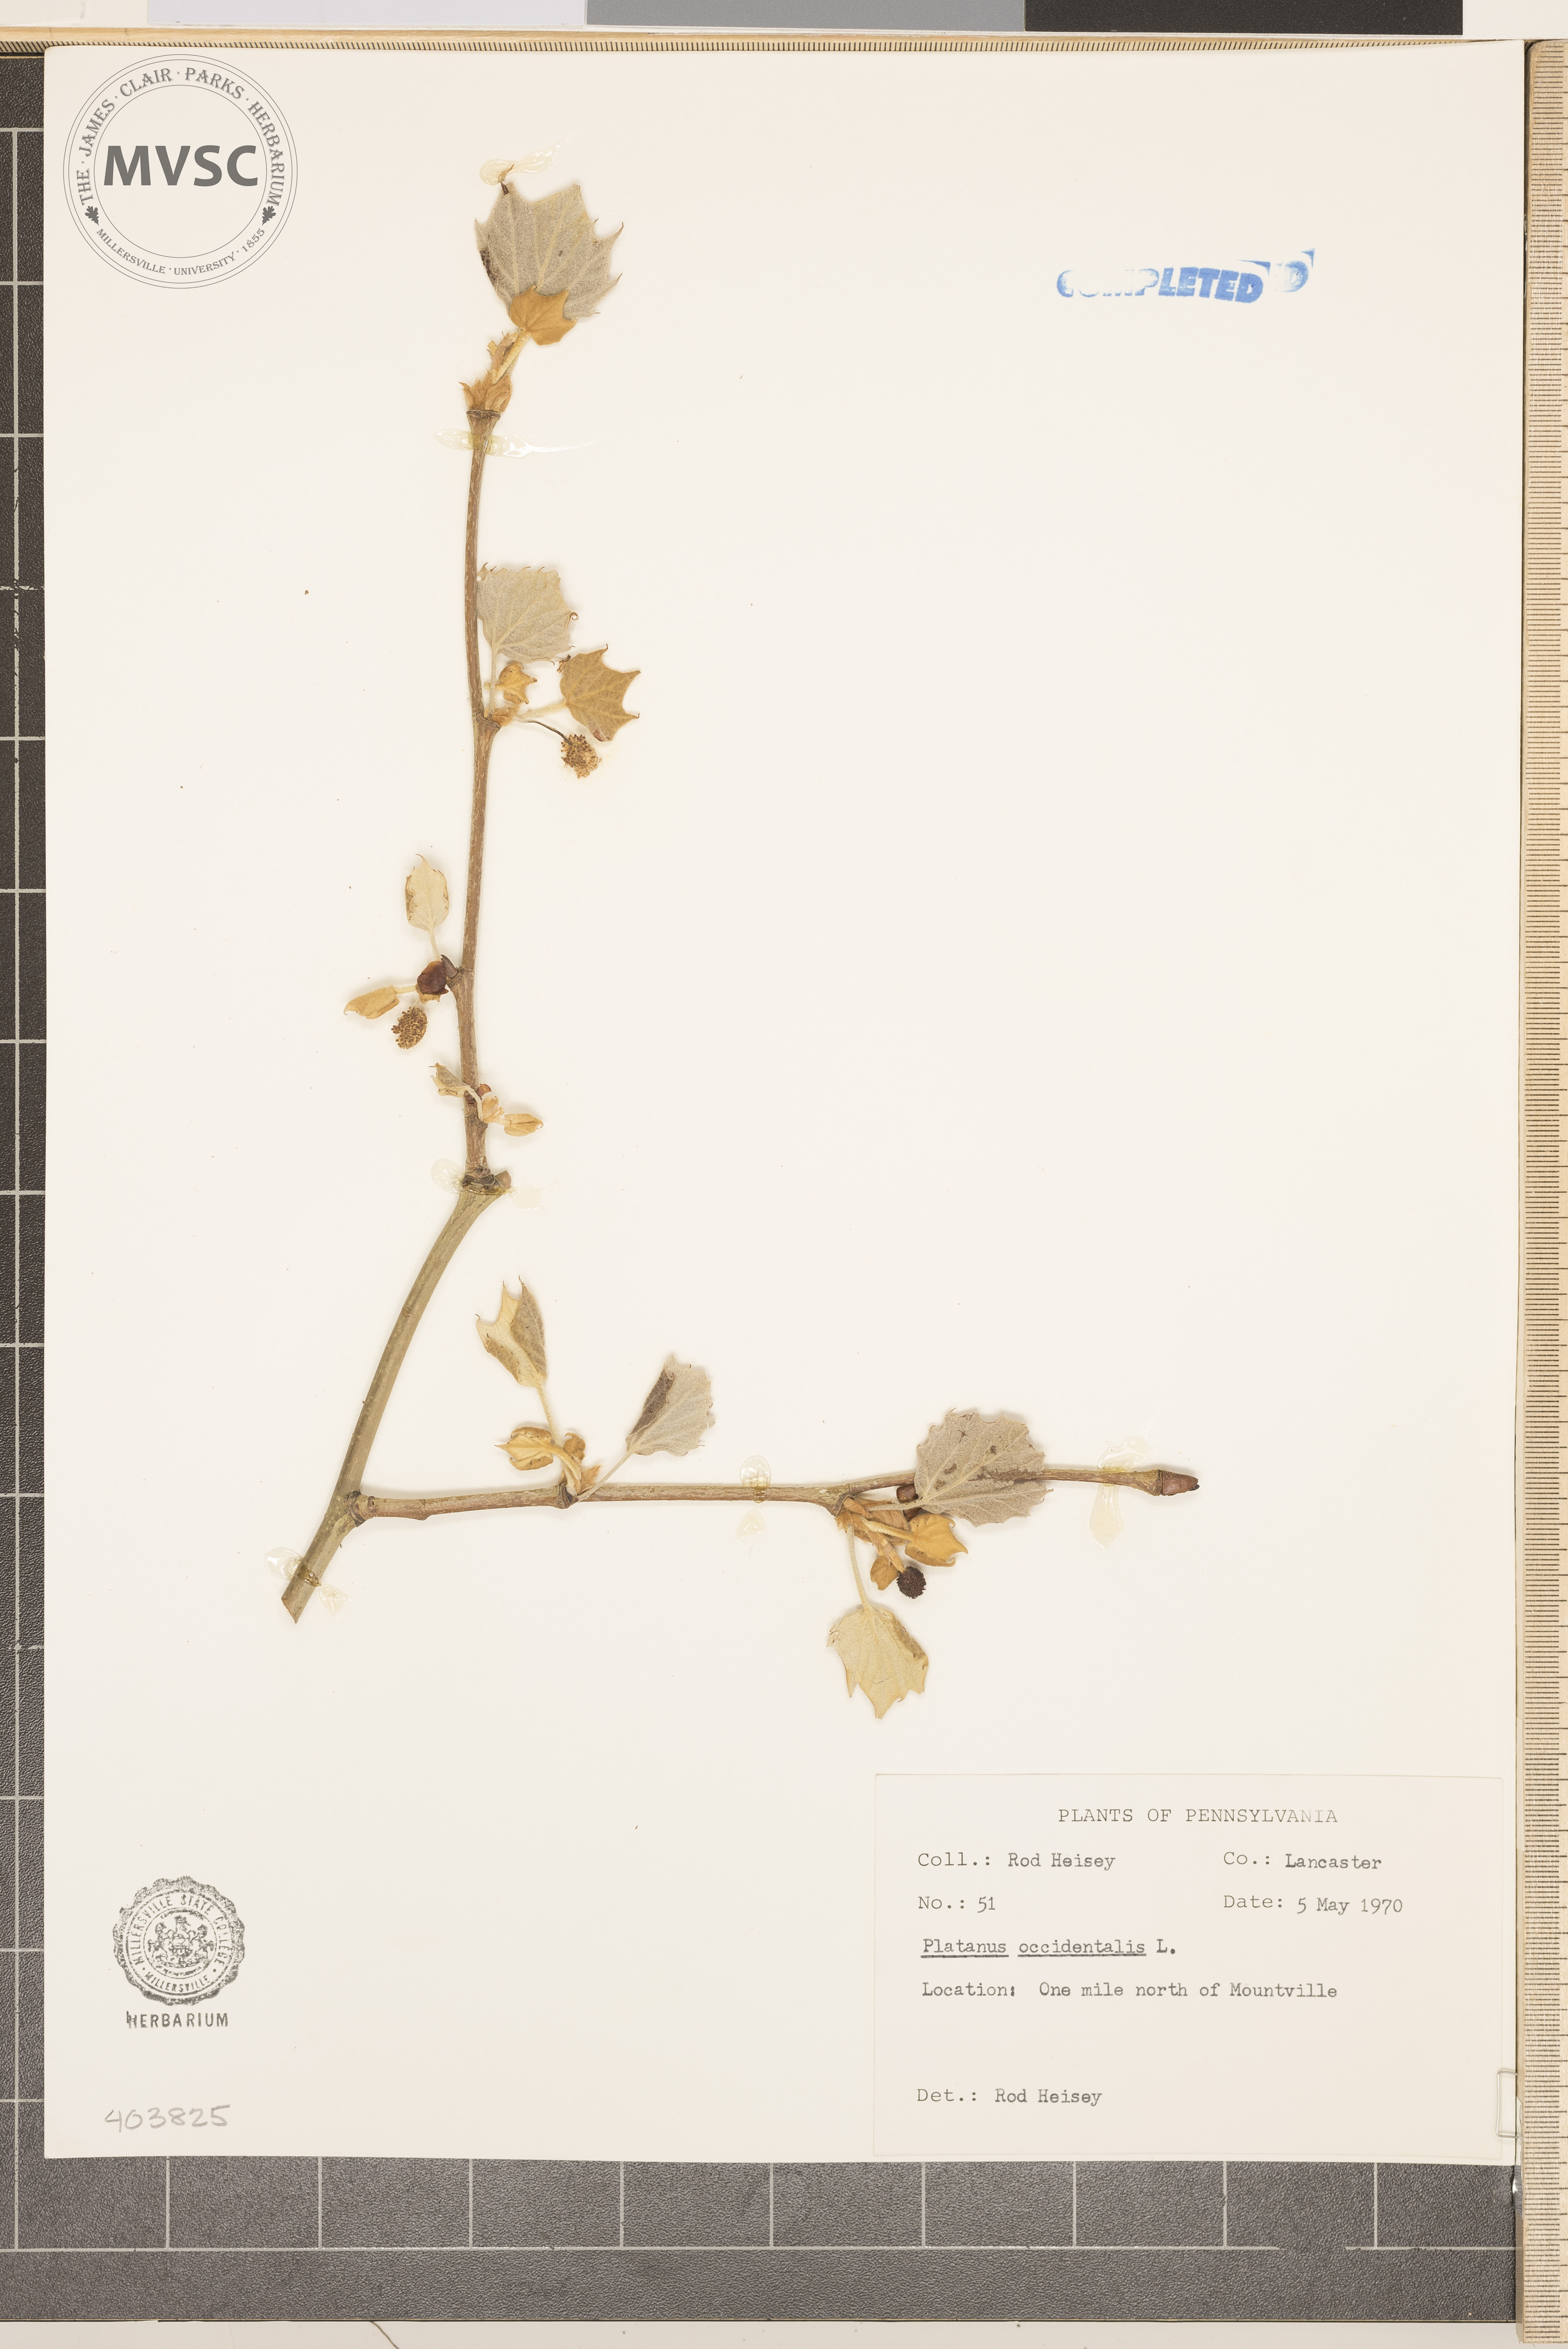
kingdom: Plantae
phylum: Tracheophyta
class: Magnoliopsida
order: Proteales
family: Platanaceae
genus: Platanus
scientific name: Platanus occidentalis
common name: American sycamore
